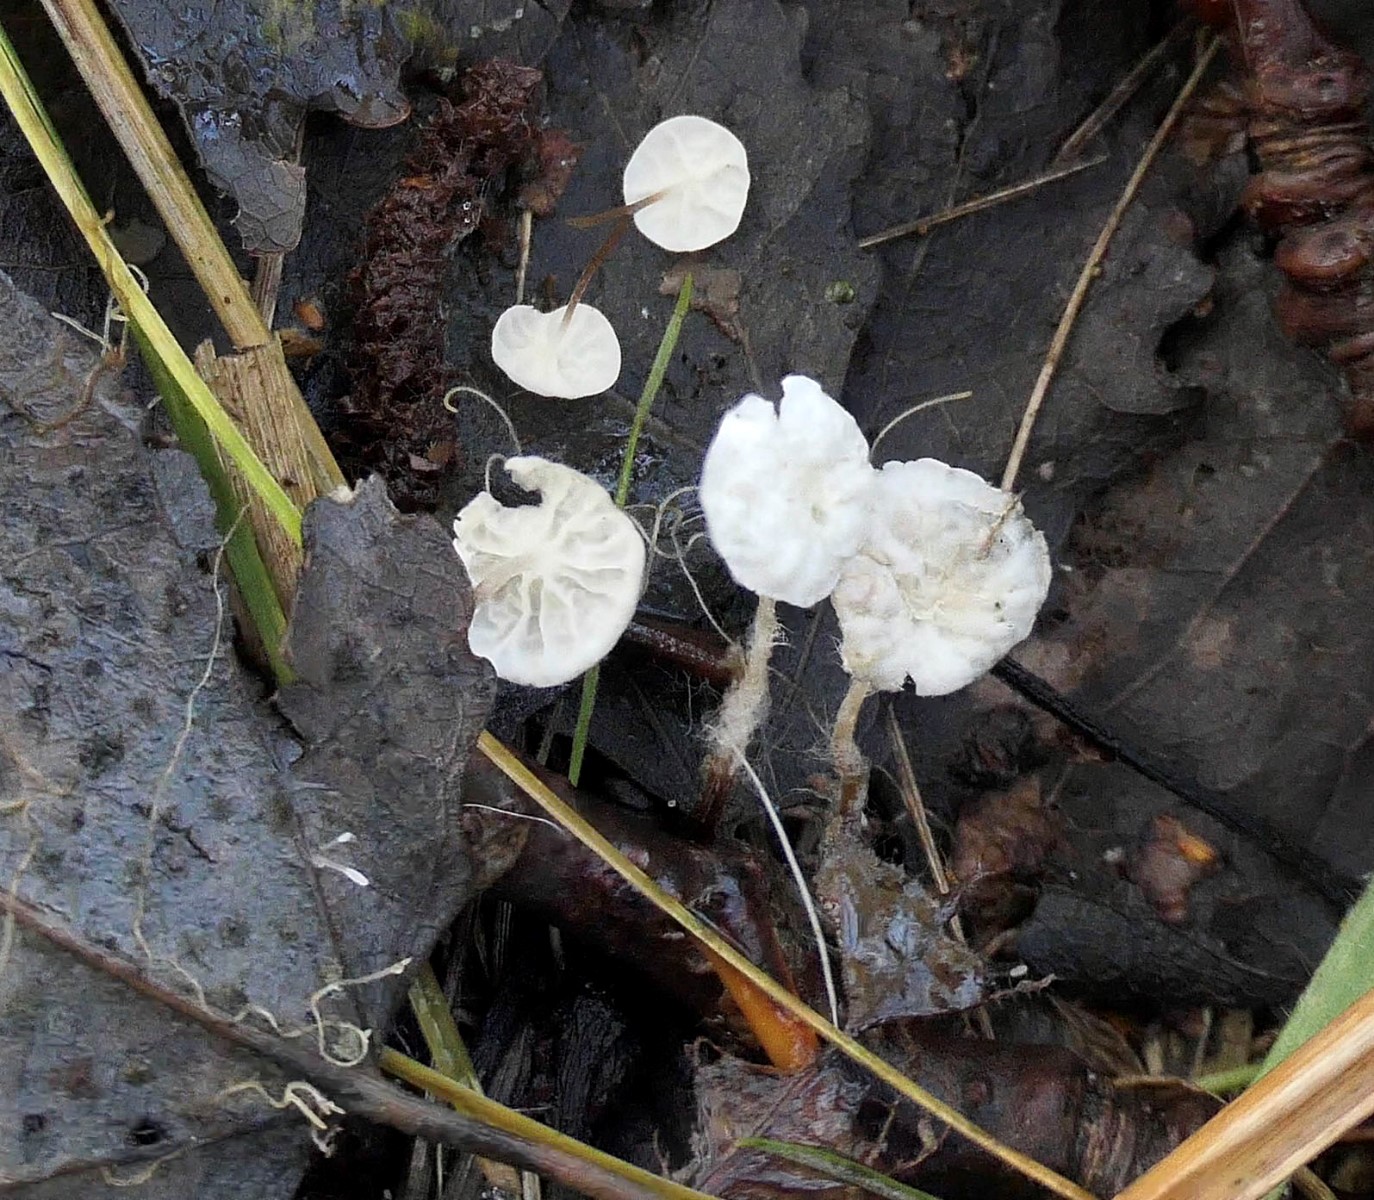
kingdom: Fungi
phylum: Basidiomycota
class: Agaricomycetes
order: Agaricales
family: Marasmiaceae
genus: Marasmius
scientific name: Marasmius epiphyllus
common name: blad-bruskhat
